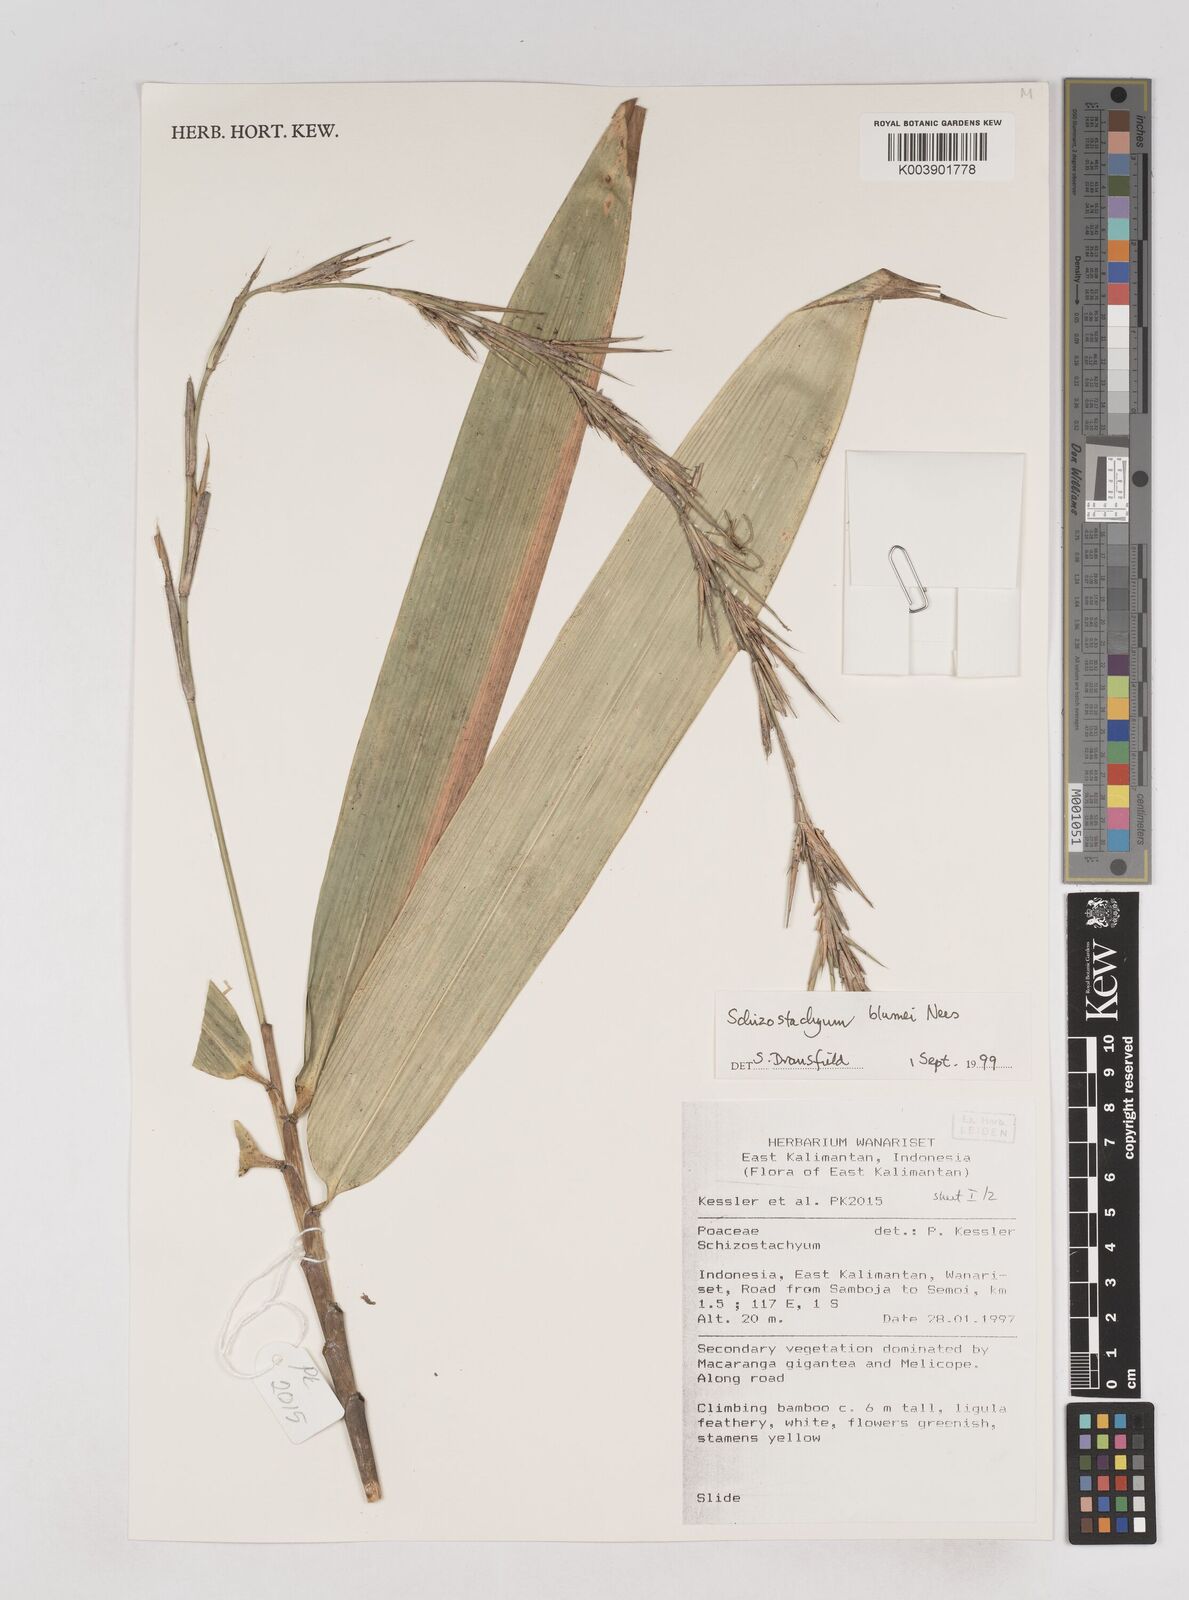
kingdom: Plantae
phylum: Tracheophyta
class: Liliopsida
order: Poales
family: Poaceae
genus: Schizostachyum
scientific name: Schizostachyum blumei
